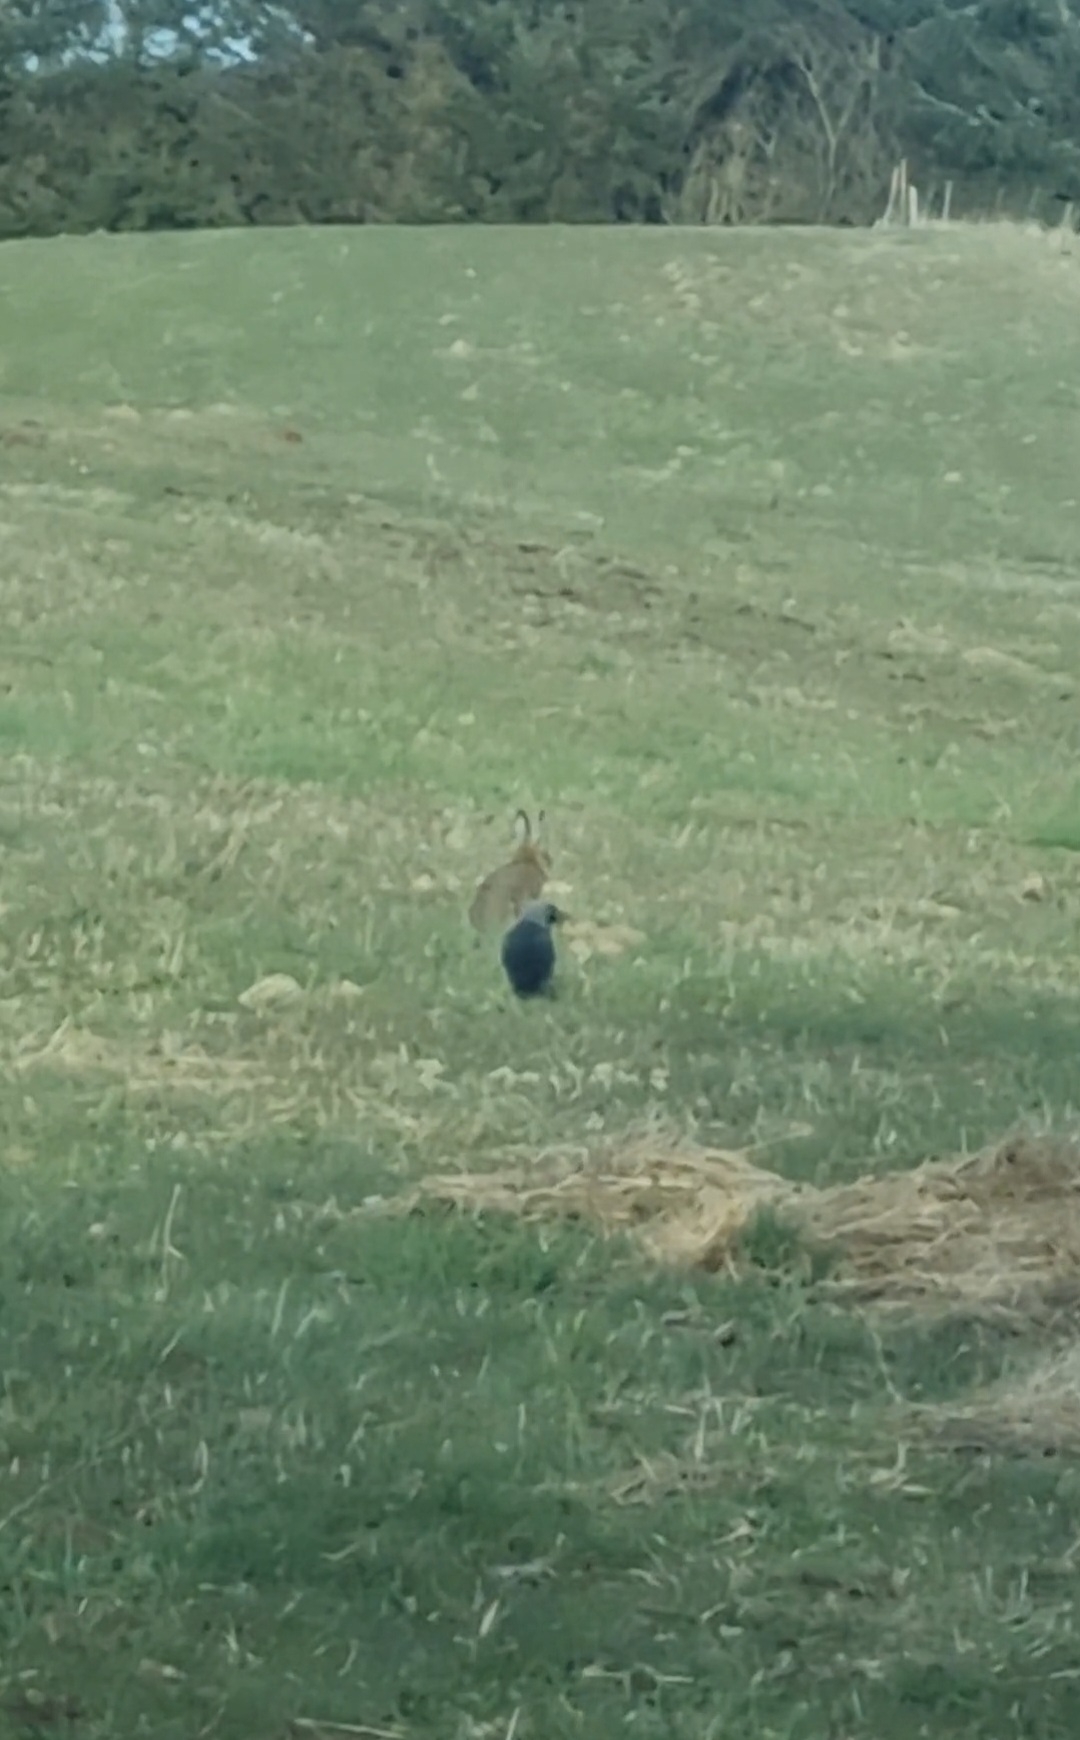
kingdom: Animalia
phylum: Chordata
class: Mammalia
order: Lagomorpha
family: Leporidae
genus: Lepus
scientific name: Lepus europaeus
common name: Hare
